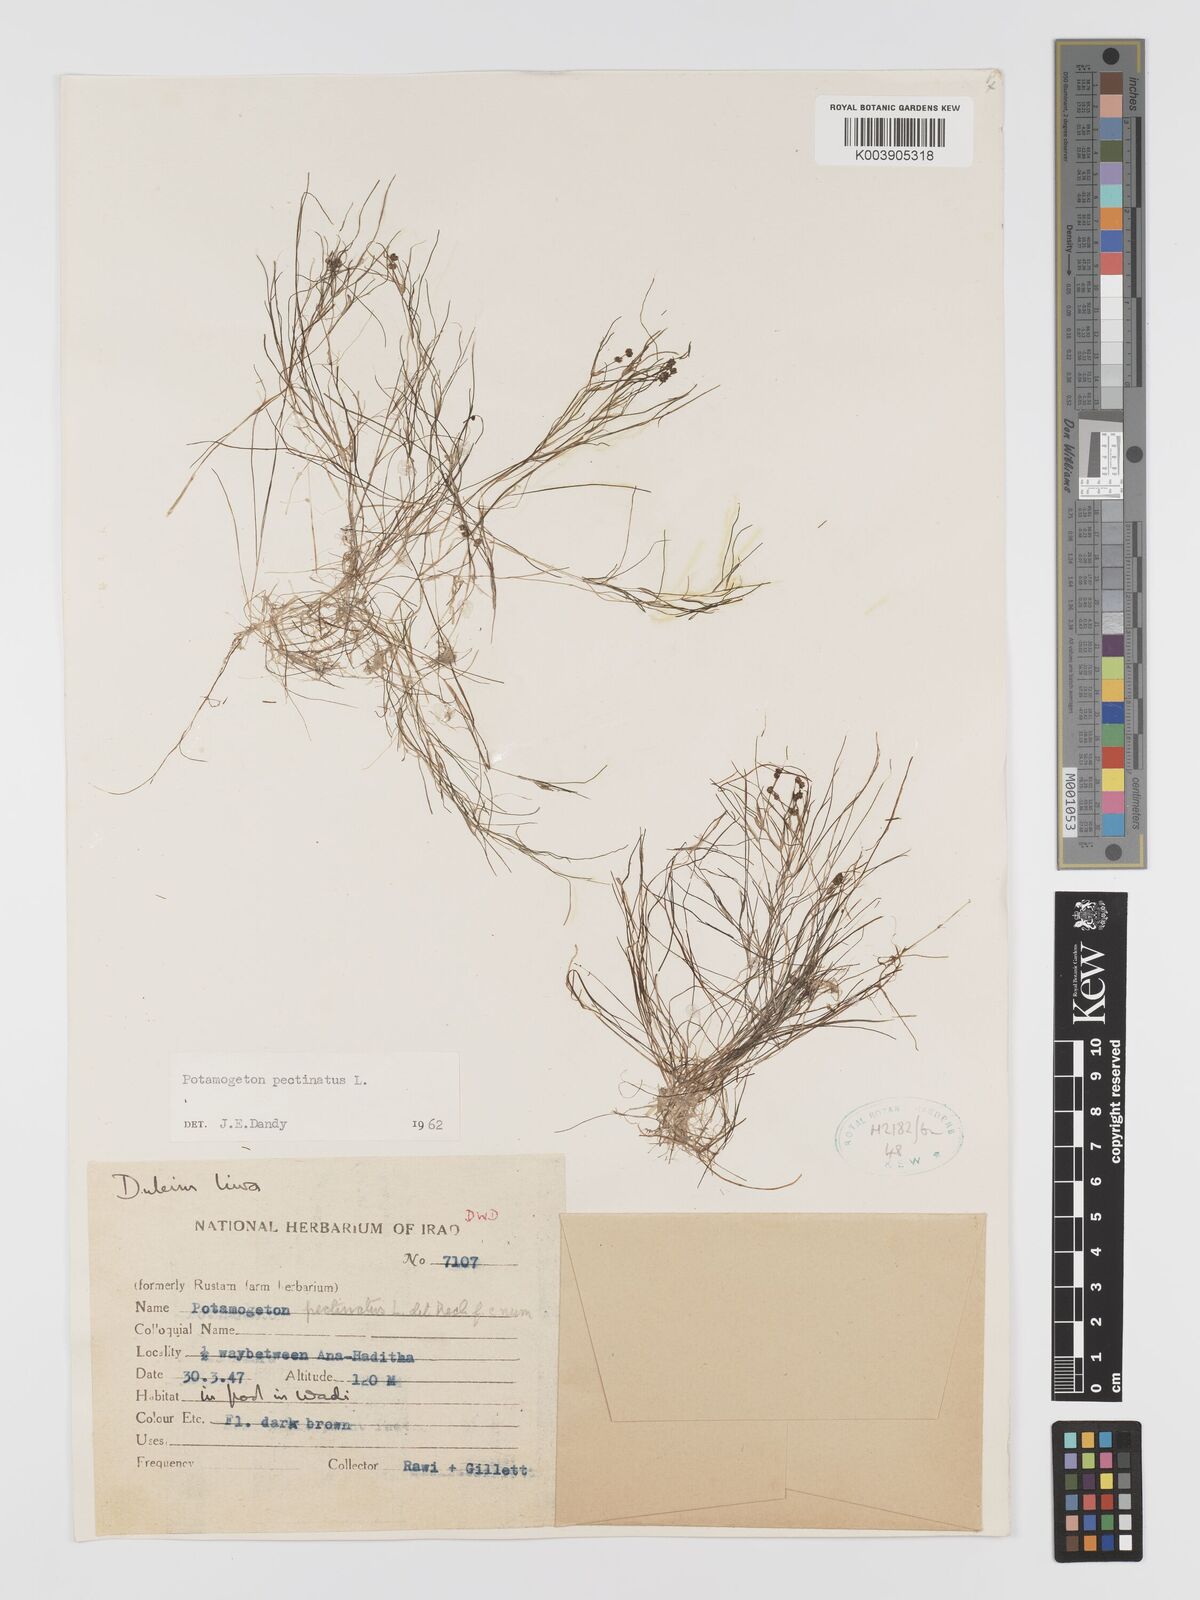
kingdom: Plantae
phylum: Tracheophyta
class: Liliopsida
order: Alismatales
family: Potamogetonaceae
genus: Stuckenia
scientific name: Stuckenia pectinata
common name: Sago pondweed
